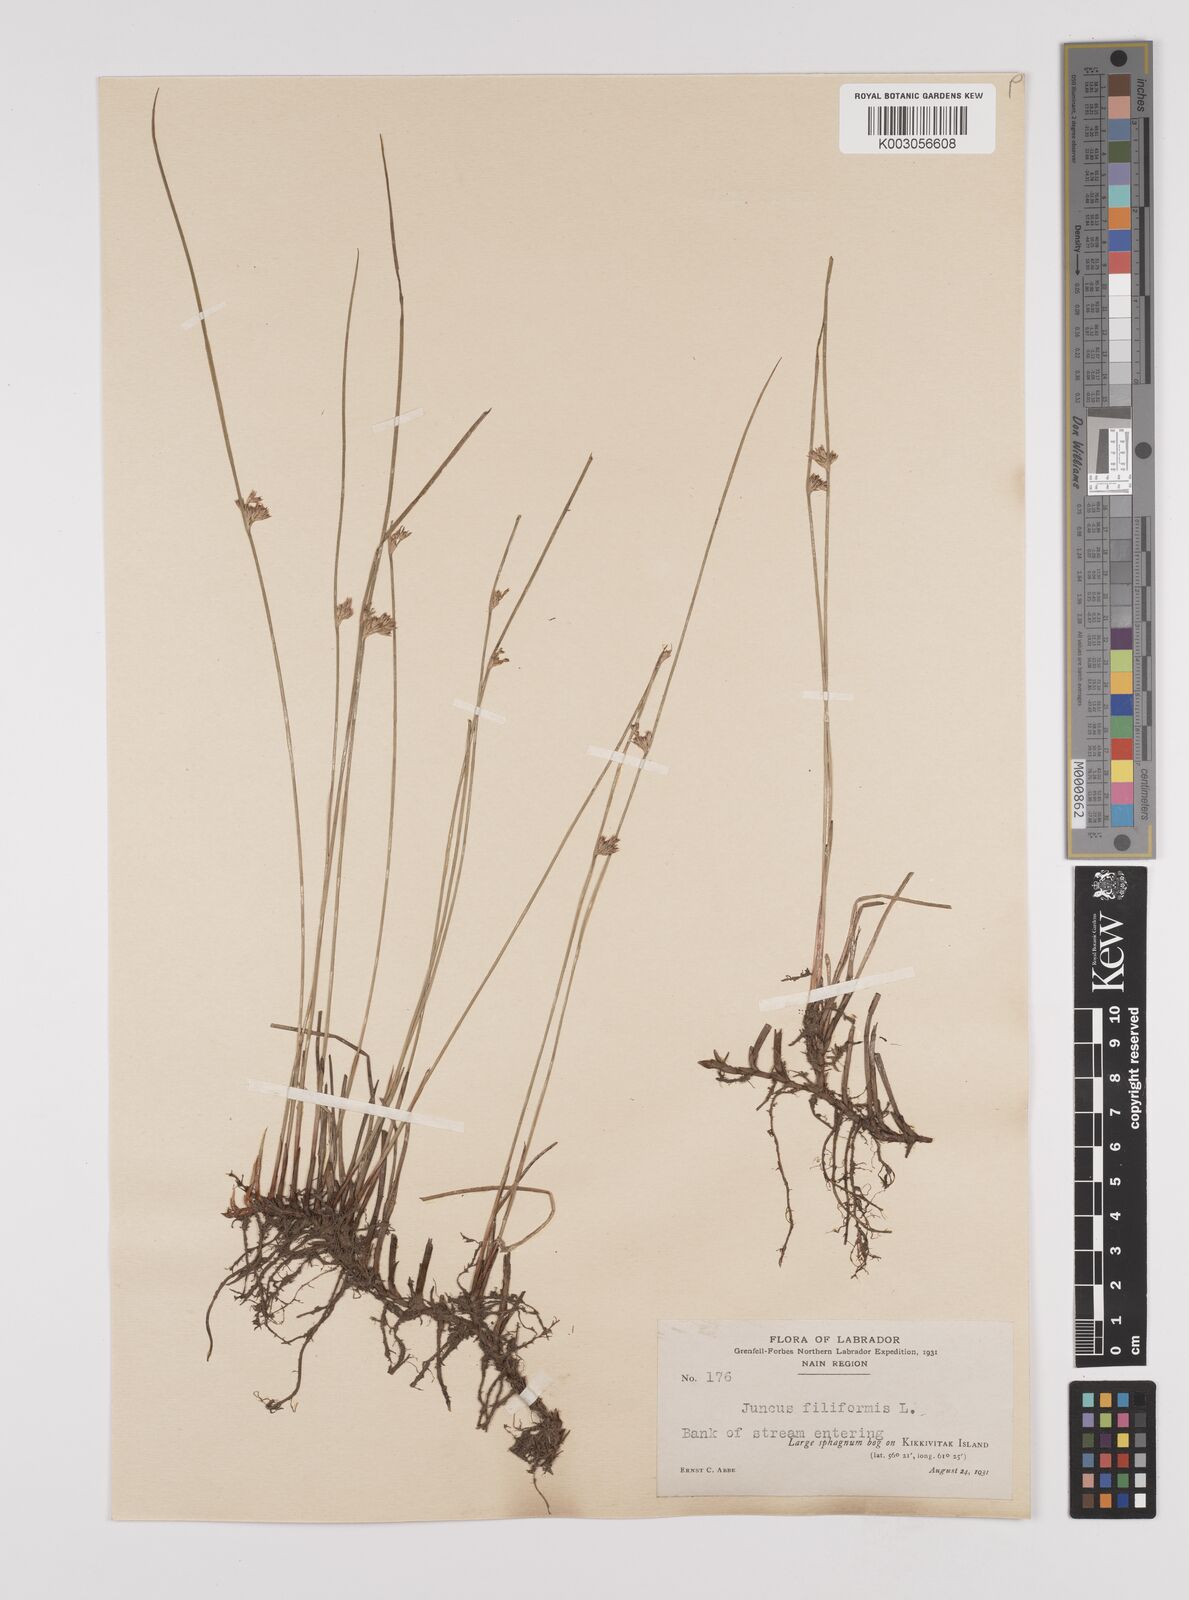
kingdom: Plantae
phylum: Tracheophyta
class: Liliopsida
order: Poales
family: Juncaceae
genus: Juncus
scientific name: Juncus filiformis
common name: Thread rush
